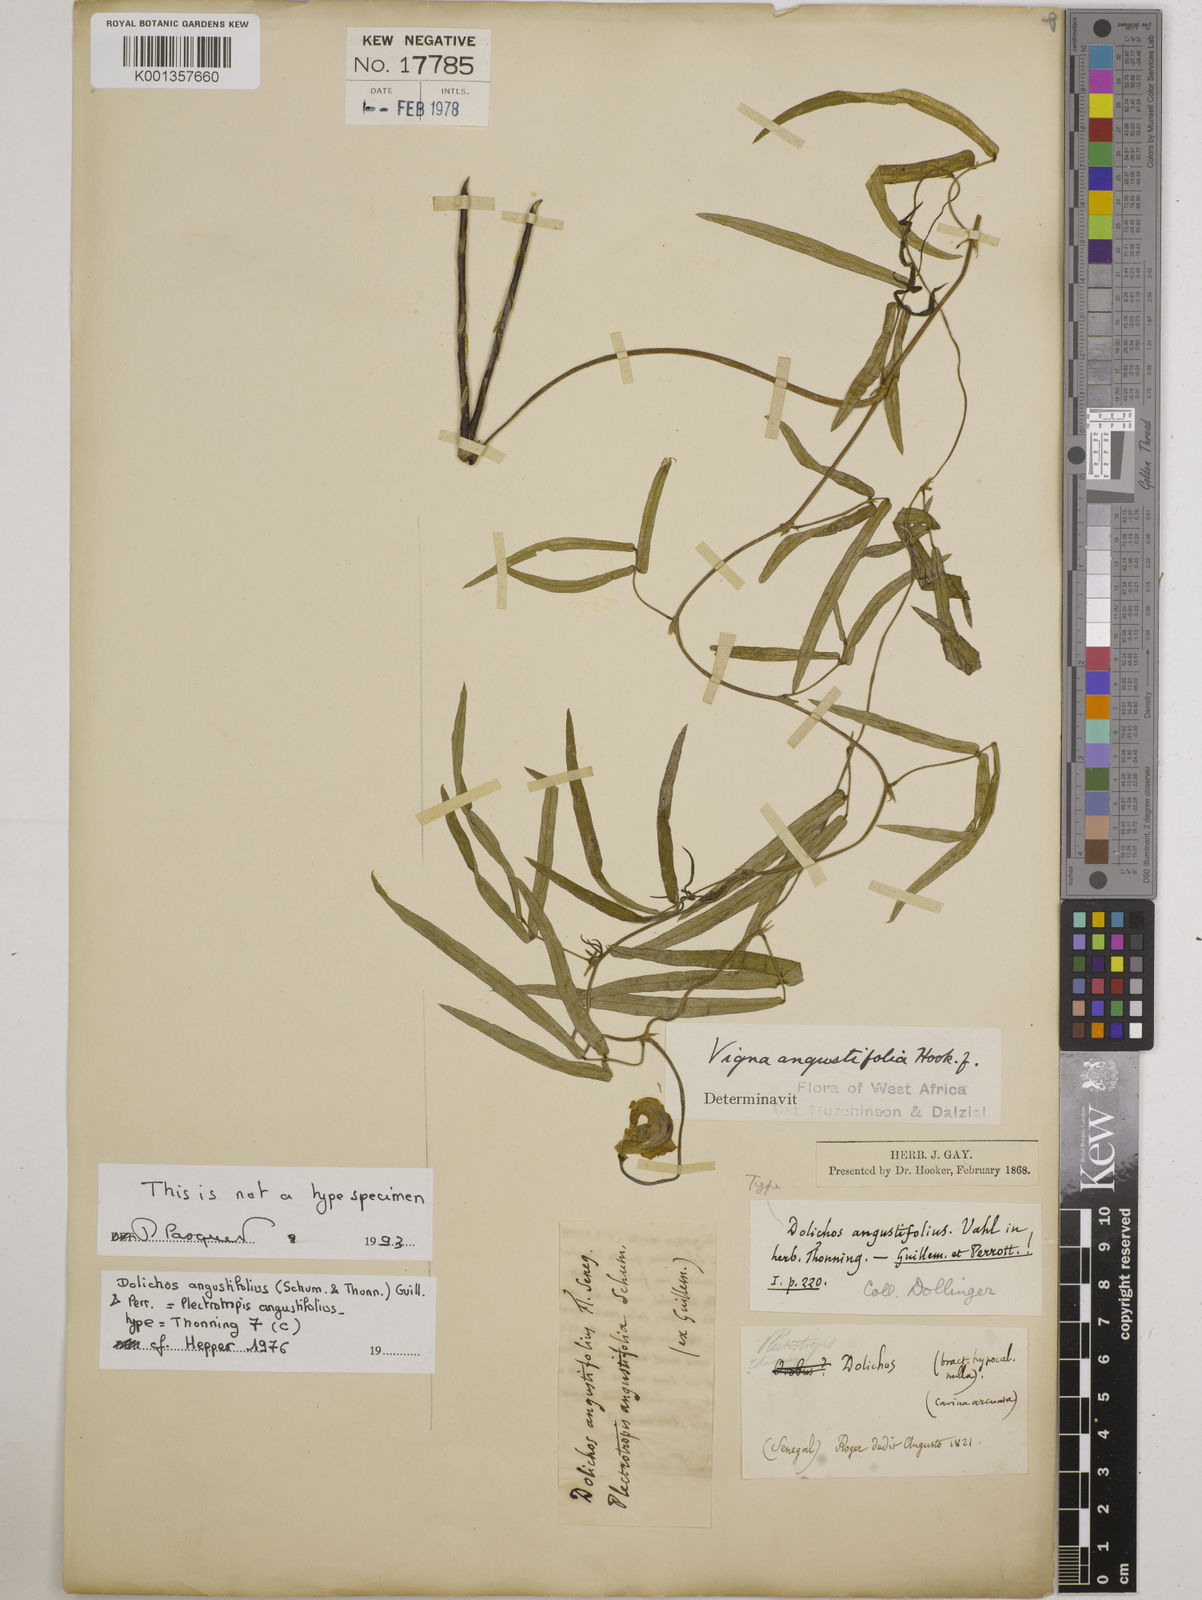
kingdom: Plantae
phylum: Tracheophyta
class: Magnoliopsida
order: Fabales
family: Fabaceae
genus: Vigna
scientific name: Vigna vexillata
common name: Zombi pea
